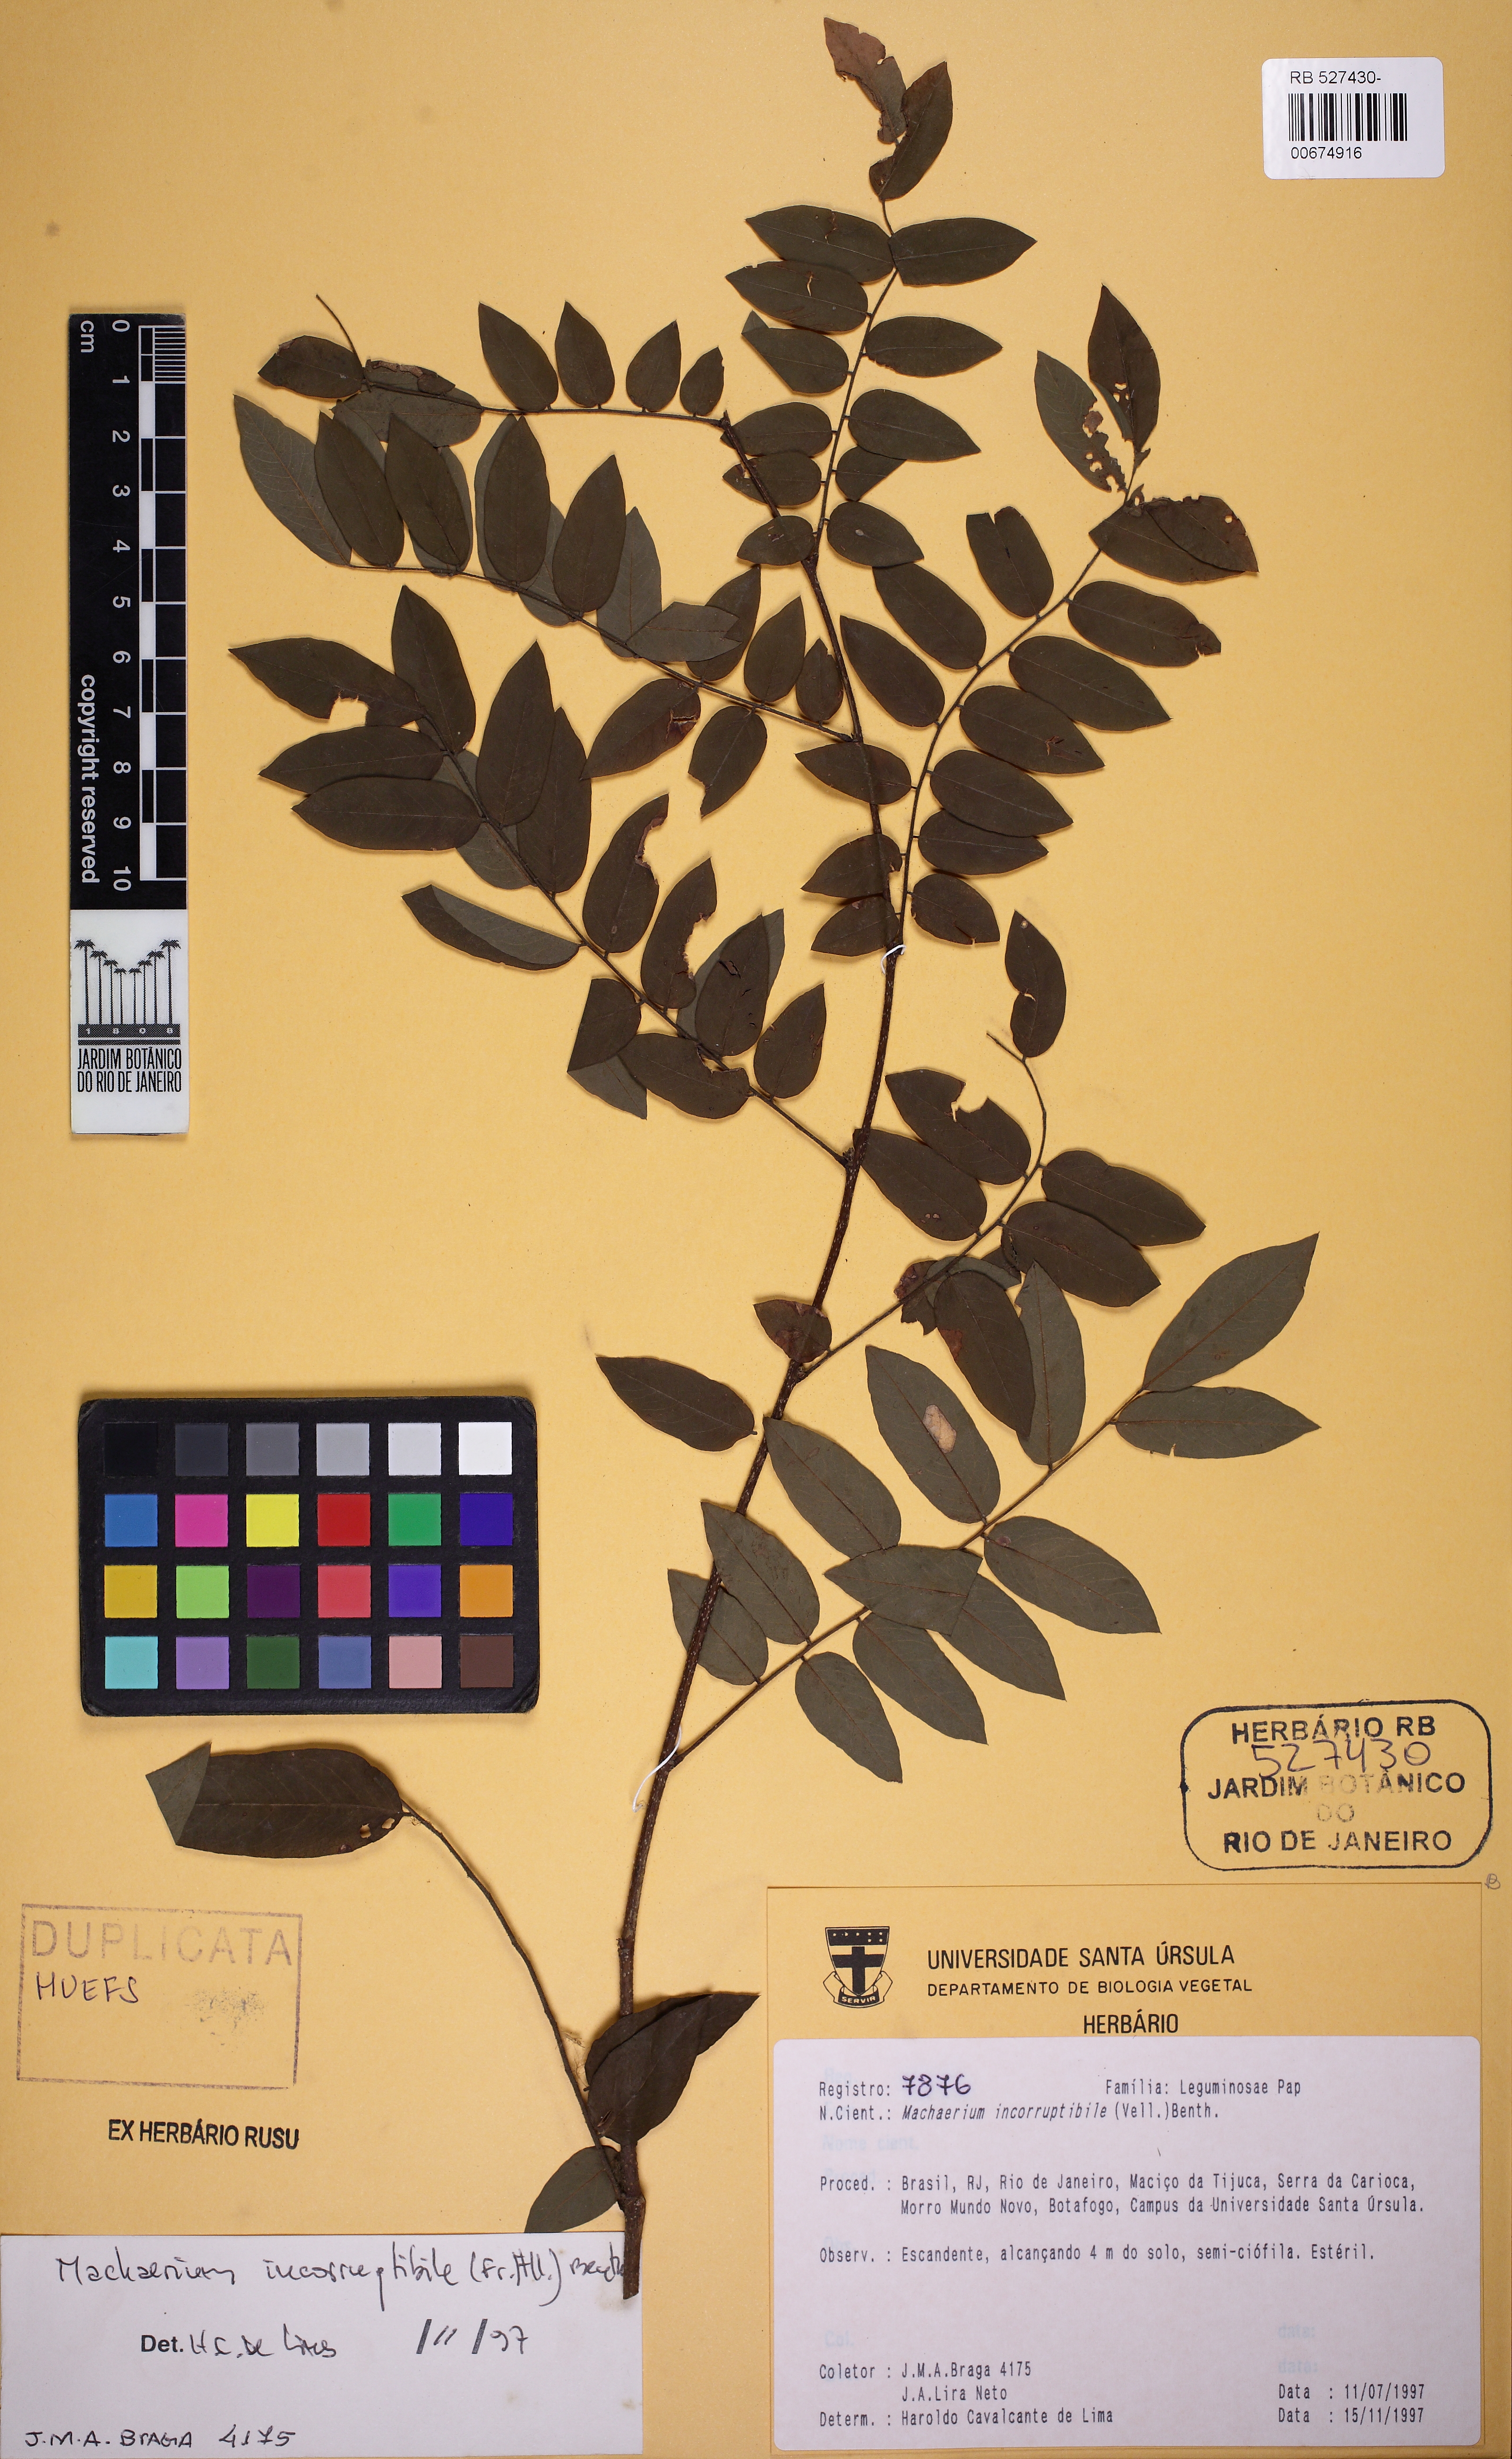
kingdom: Plantae
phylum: Tracheophyta
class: Magnoliopsida
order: Fabales
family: Fabaceae
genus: Machaerium
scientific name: Machaerium incorruptibile
